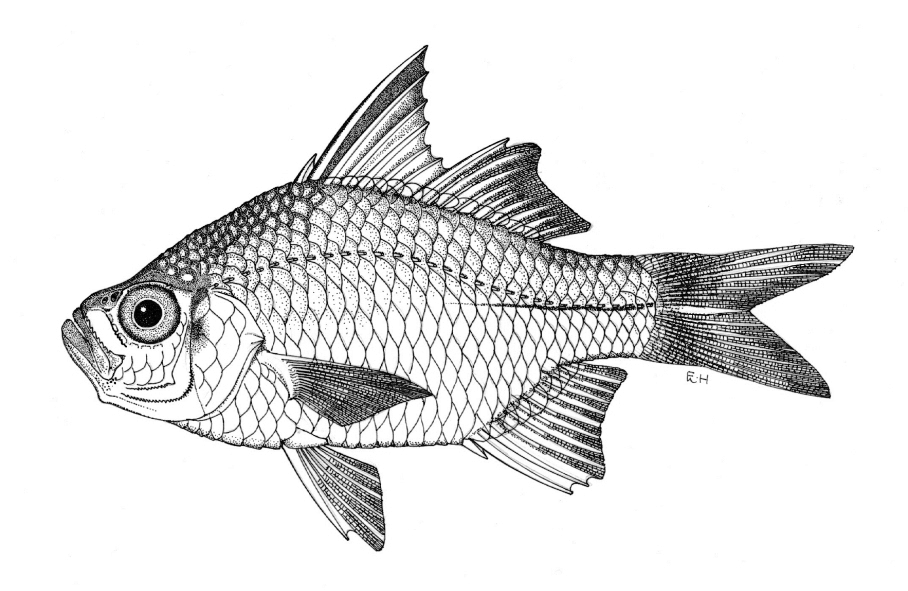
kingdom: Animalia
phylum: Chordata
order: Perciformes
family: Ambassidae
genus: Ambassis
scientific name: Ambassis nalua
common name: Scalloped perchlet
